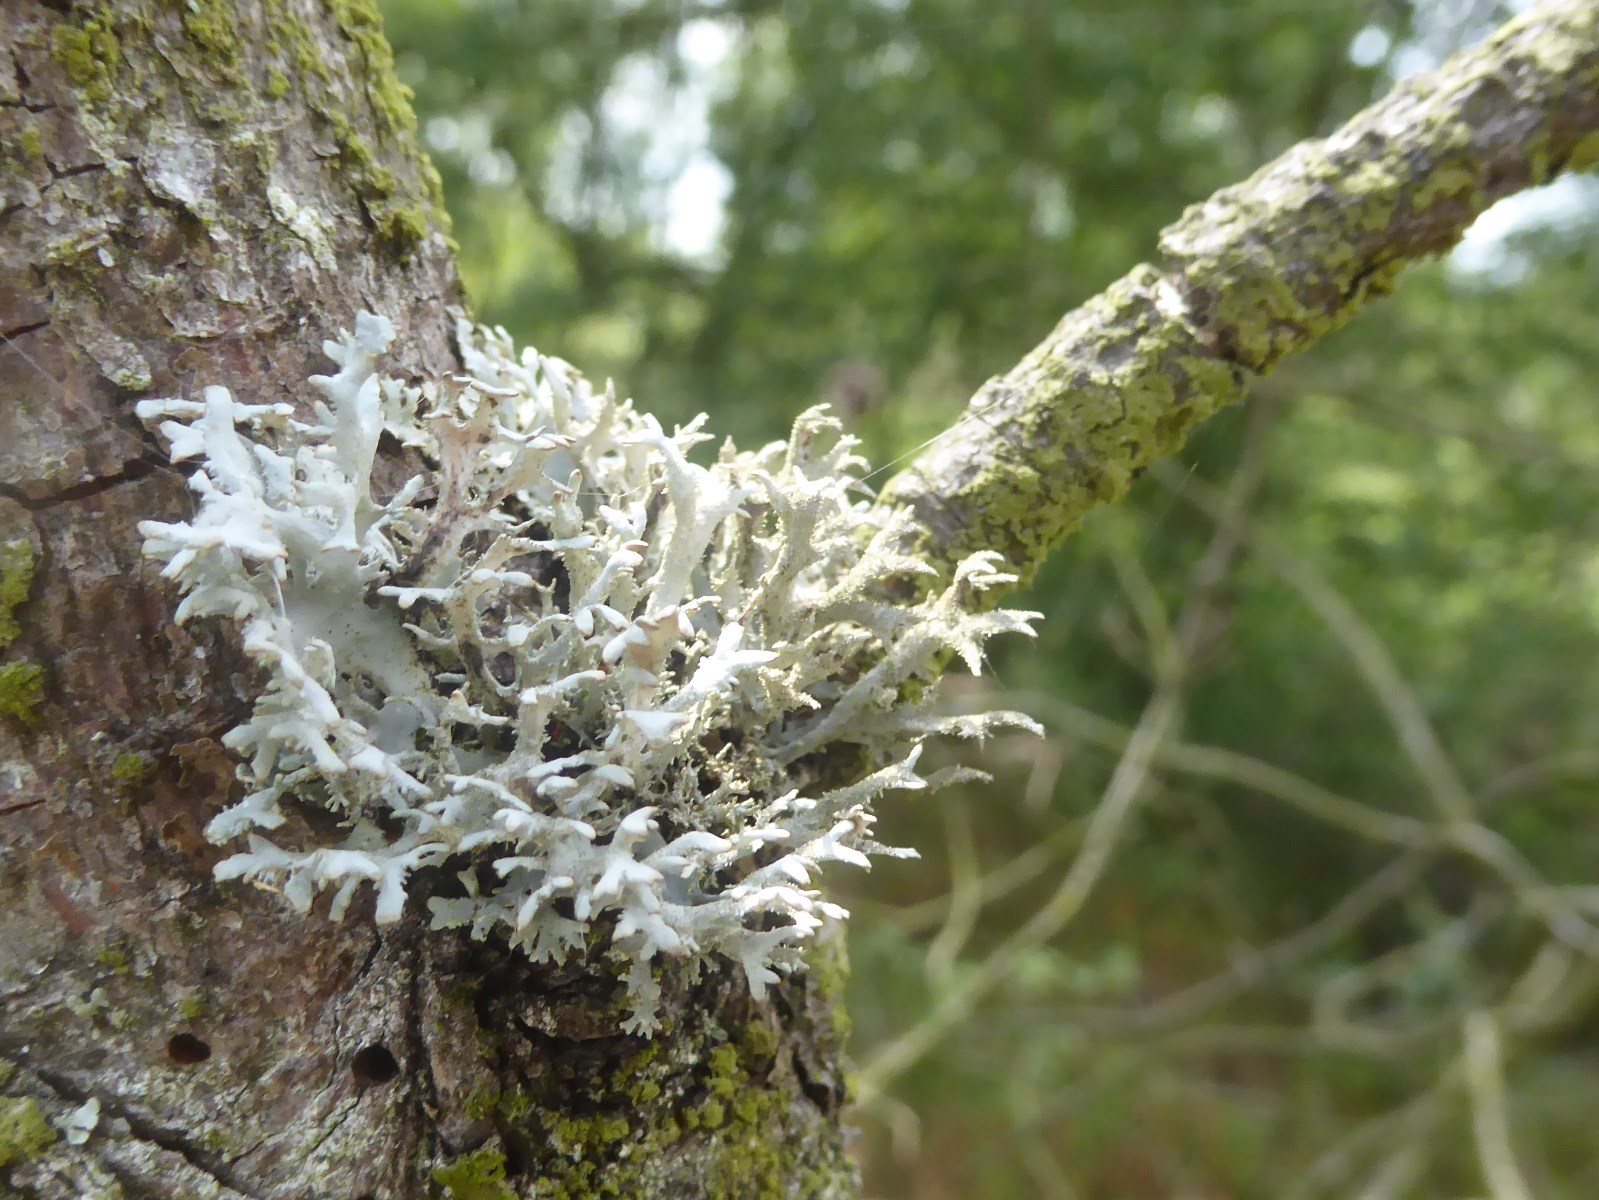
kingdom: Fungi
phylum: Ascomycota
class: Lecanoromycetes
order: Lecanorales
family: Parmeliaceae
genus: Pseudevernia
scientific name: Pseudevernia furfuracea
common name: grå fyrrelav
